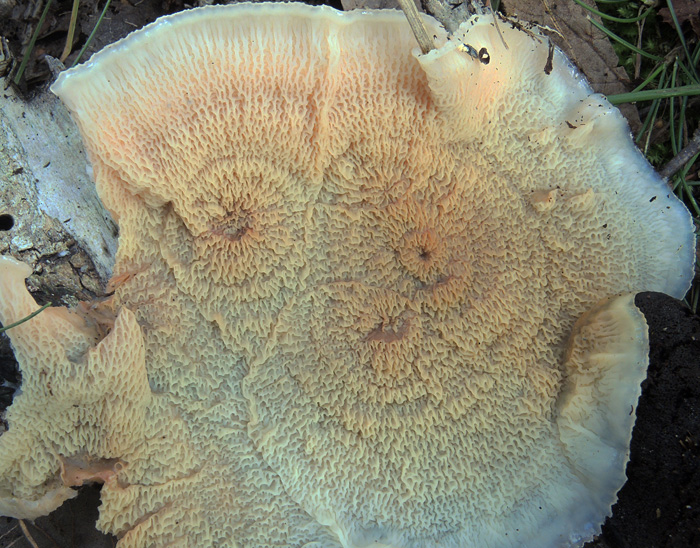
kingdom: Fungi
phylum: Basidiomycota
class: Agaricomycetes
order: Polyporales
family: Meruliaceae
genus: Phlebia
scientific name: Phlebia tremellosa
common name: bævrende åresvamp
